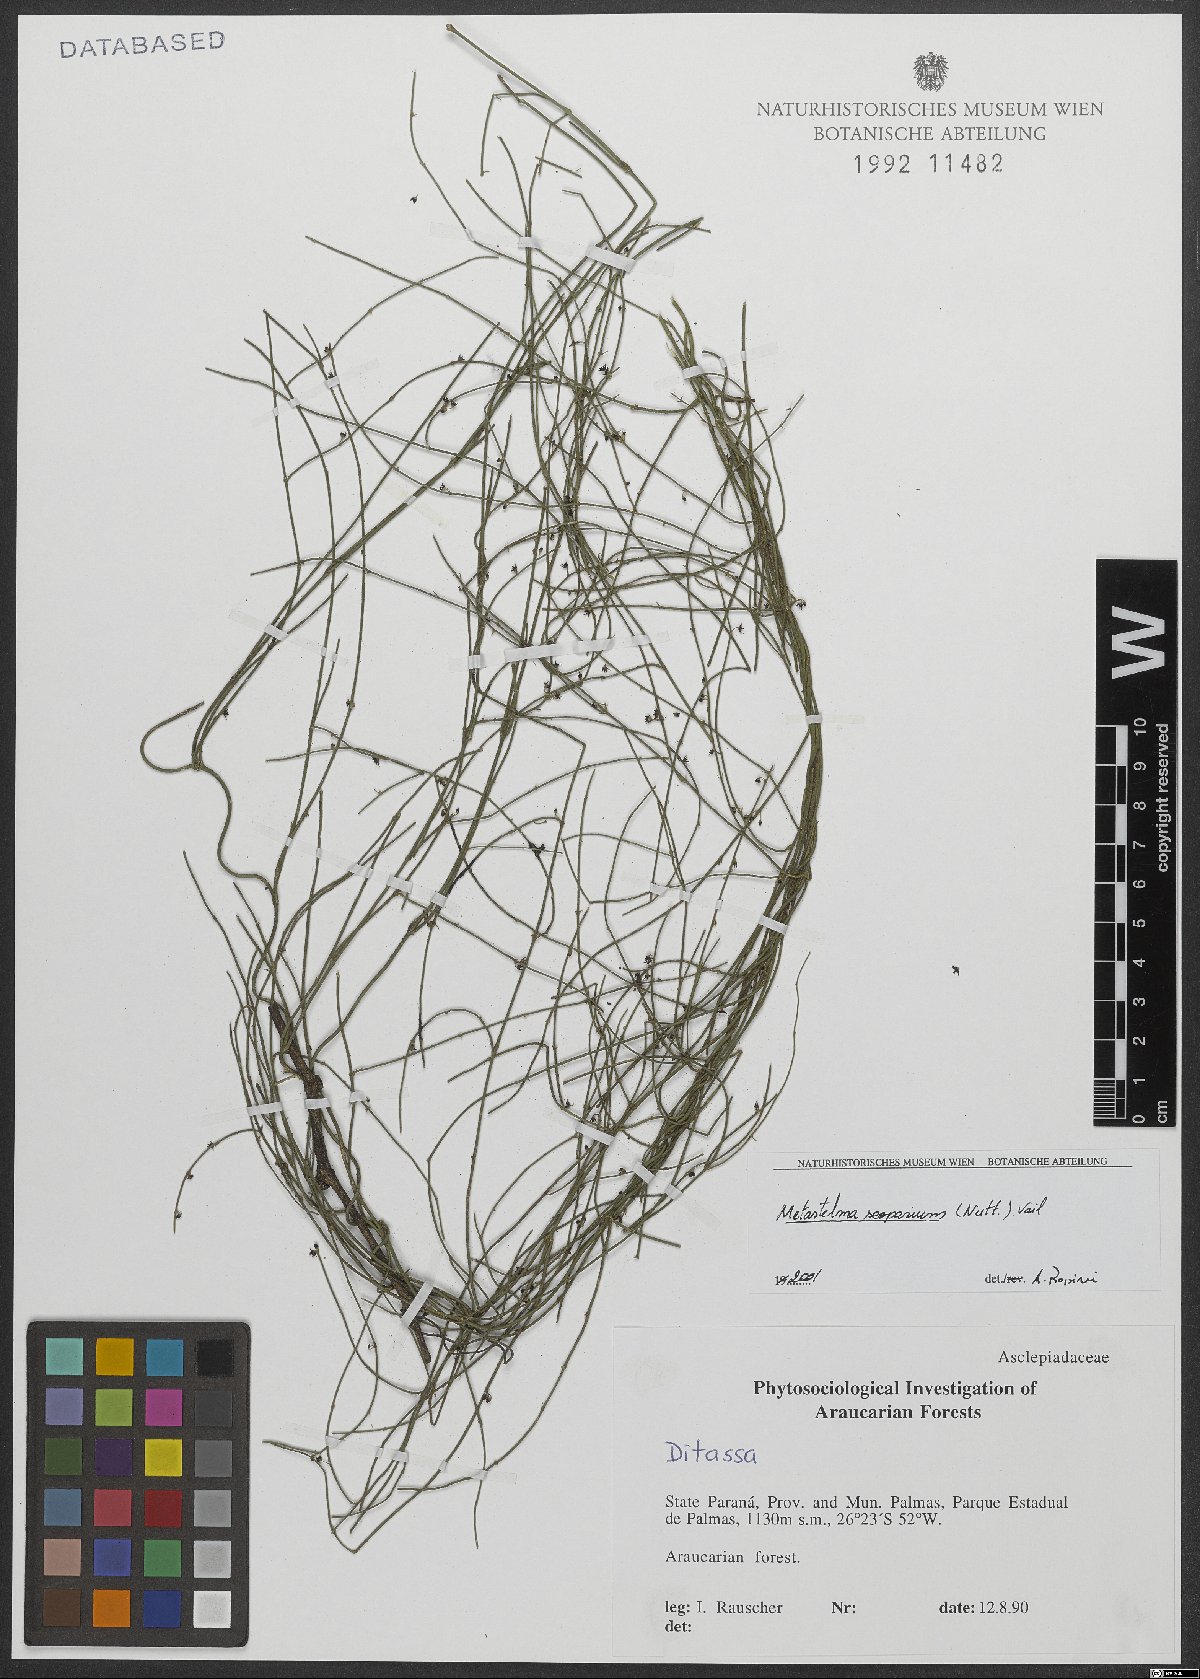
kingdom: Plantae
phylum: Tracheophyta
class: Magnoliopsida
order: Gentianales
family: Apocynaceae
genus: Orthosia
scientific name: Orthosia scoparia
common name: Leafless swallow-wort
